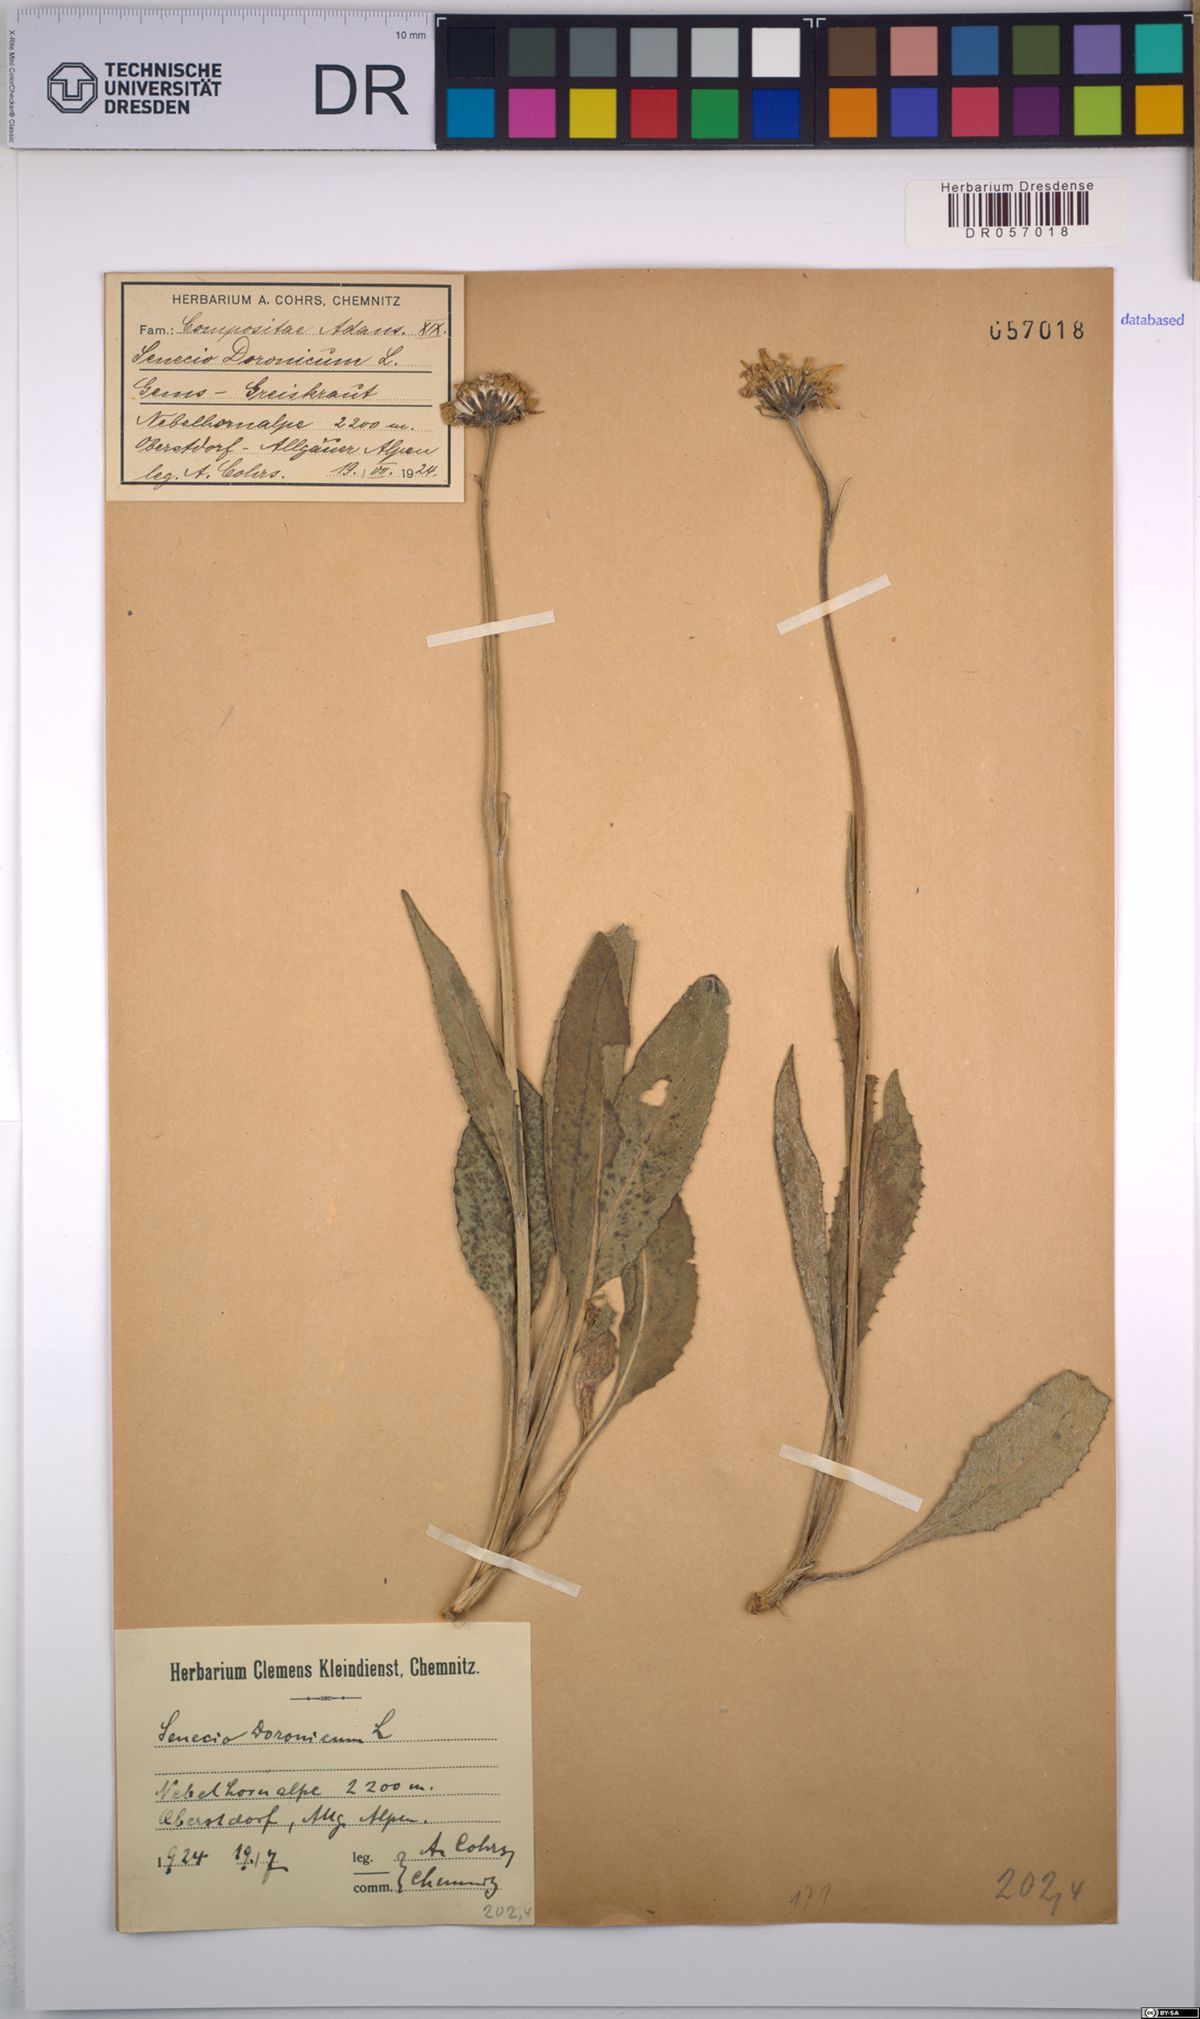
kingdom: Plantae
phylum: Tracheophyta
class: Magnoliopsida
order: Asterales
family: Asteraceae
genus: Senecio
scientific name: Senecio doronicum
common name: Chamois ragwort
